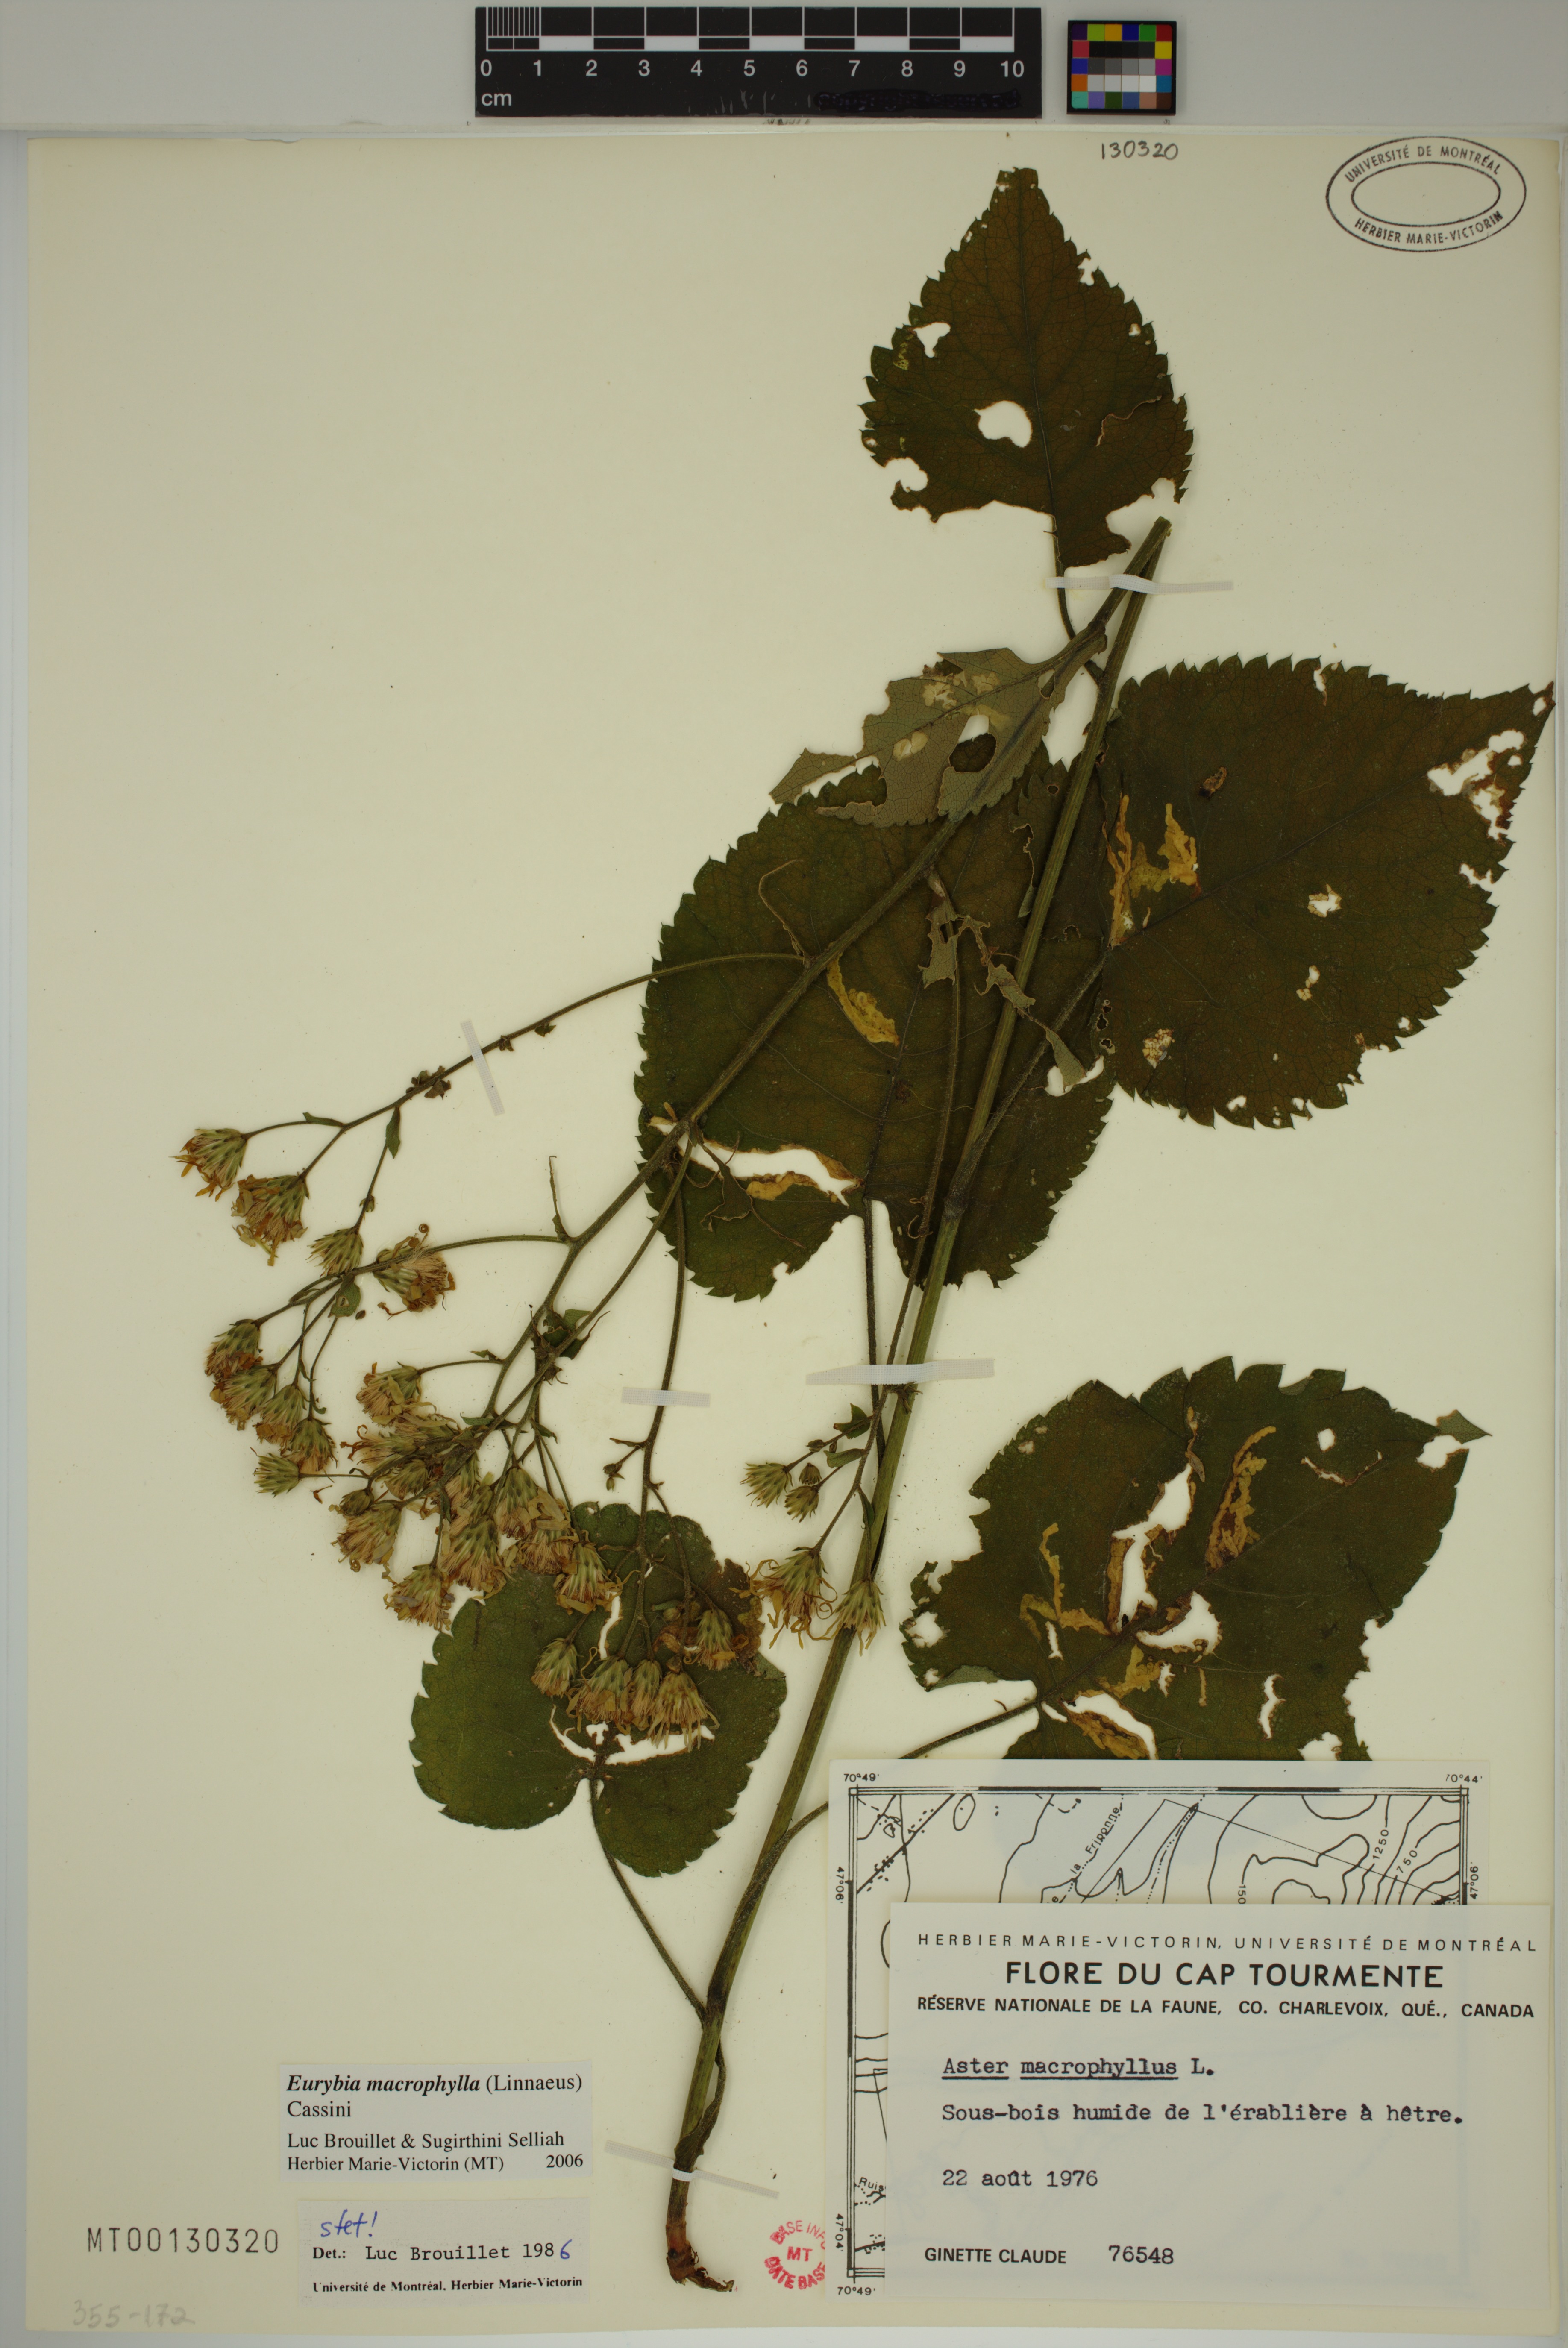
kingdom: Plantae
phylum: Tracheophyta
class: Magnoliopsida
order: Asterales
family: Asteraceae
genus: Eurybia
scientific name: Eurybia macrophylla
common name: Big-leaved aster
